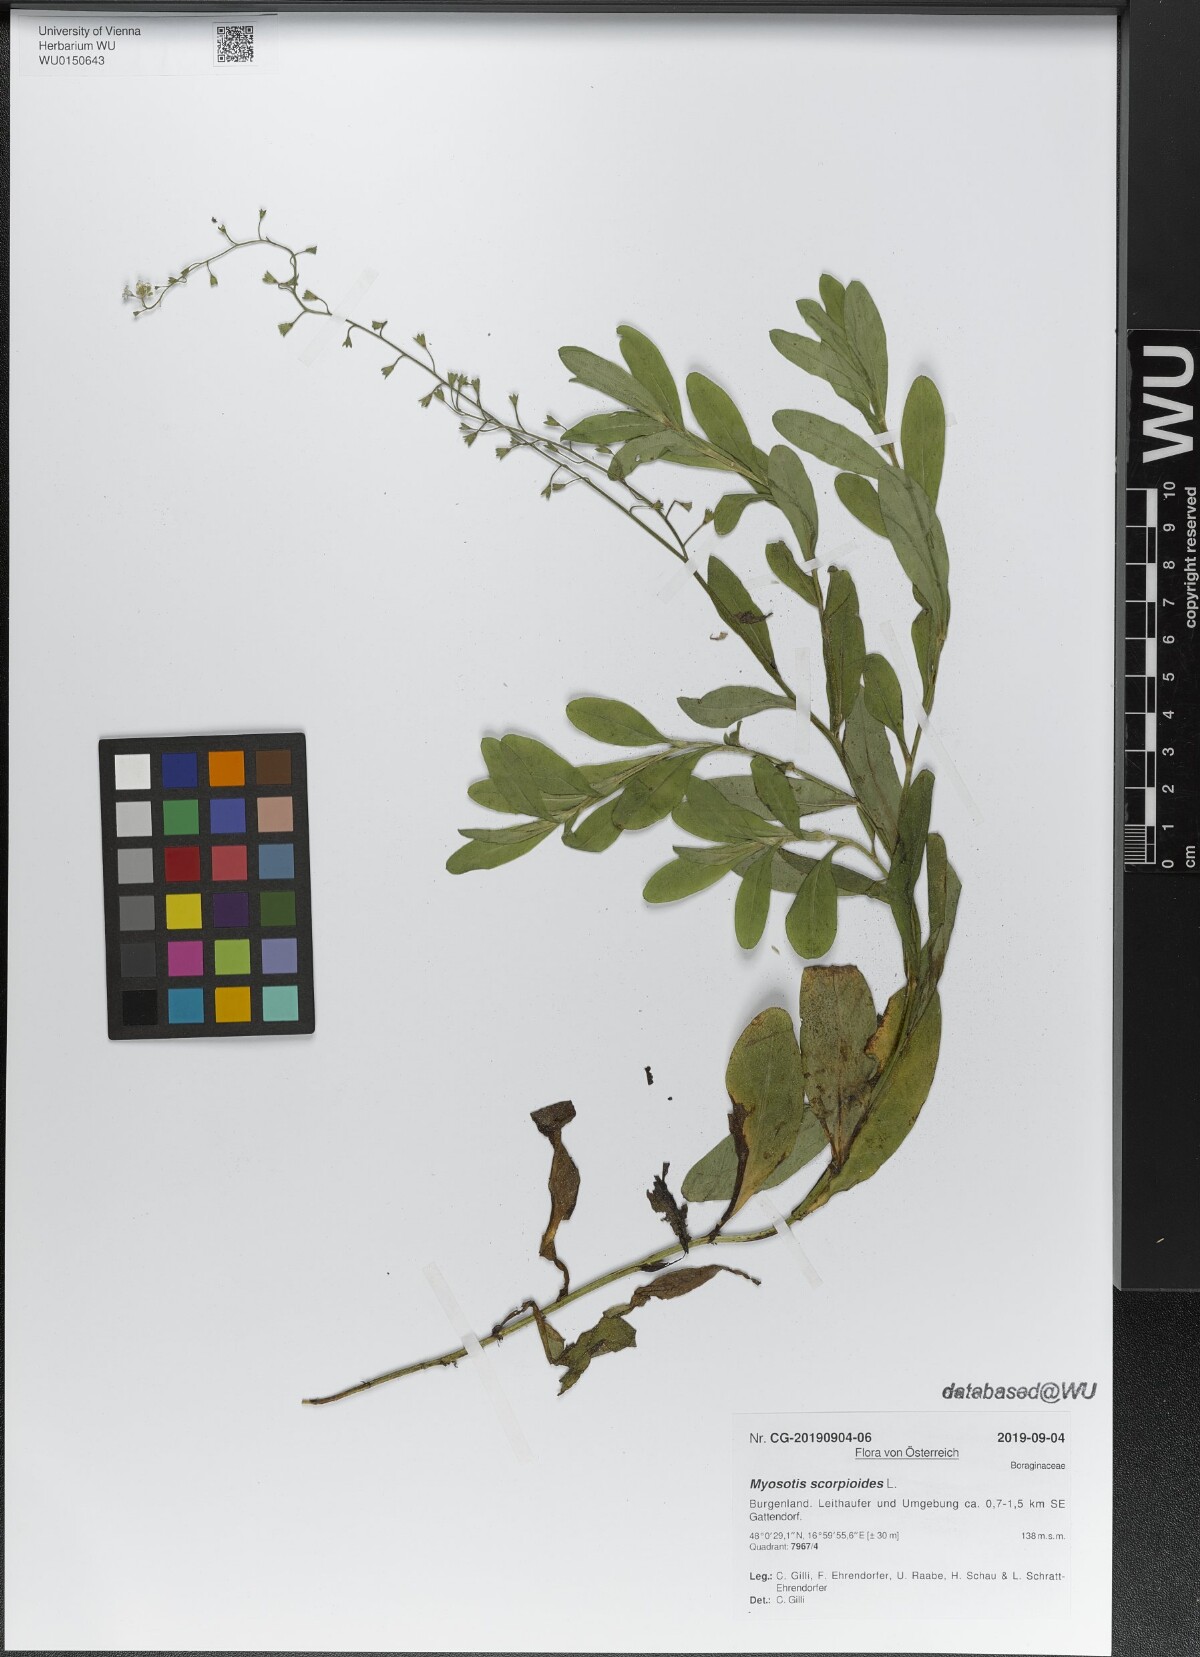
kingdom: Plantae
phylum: Tracheophyta
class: Magnoliopsida
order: Boraginales
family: Boraginaceae
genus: Myosotis
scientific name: Myosotis scorpioides
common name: Water forget-me-not
